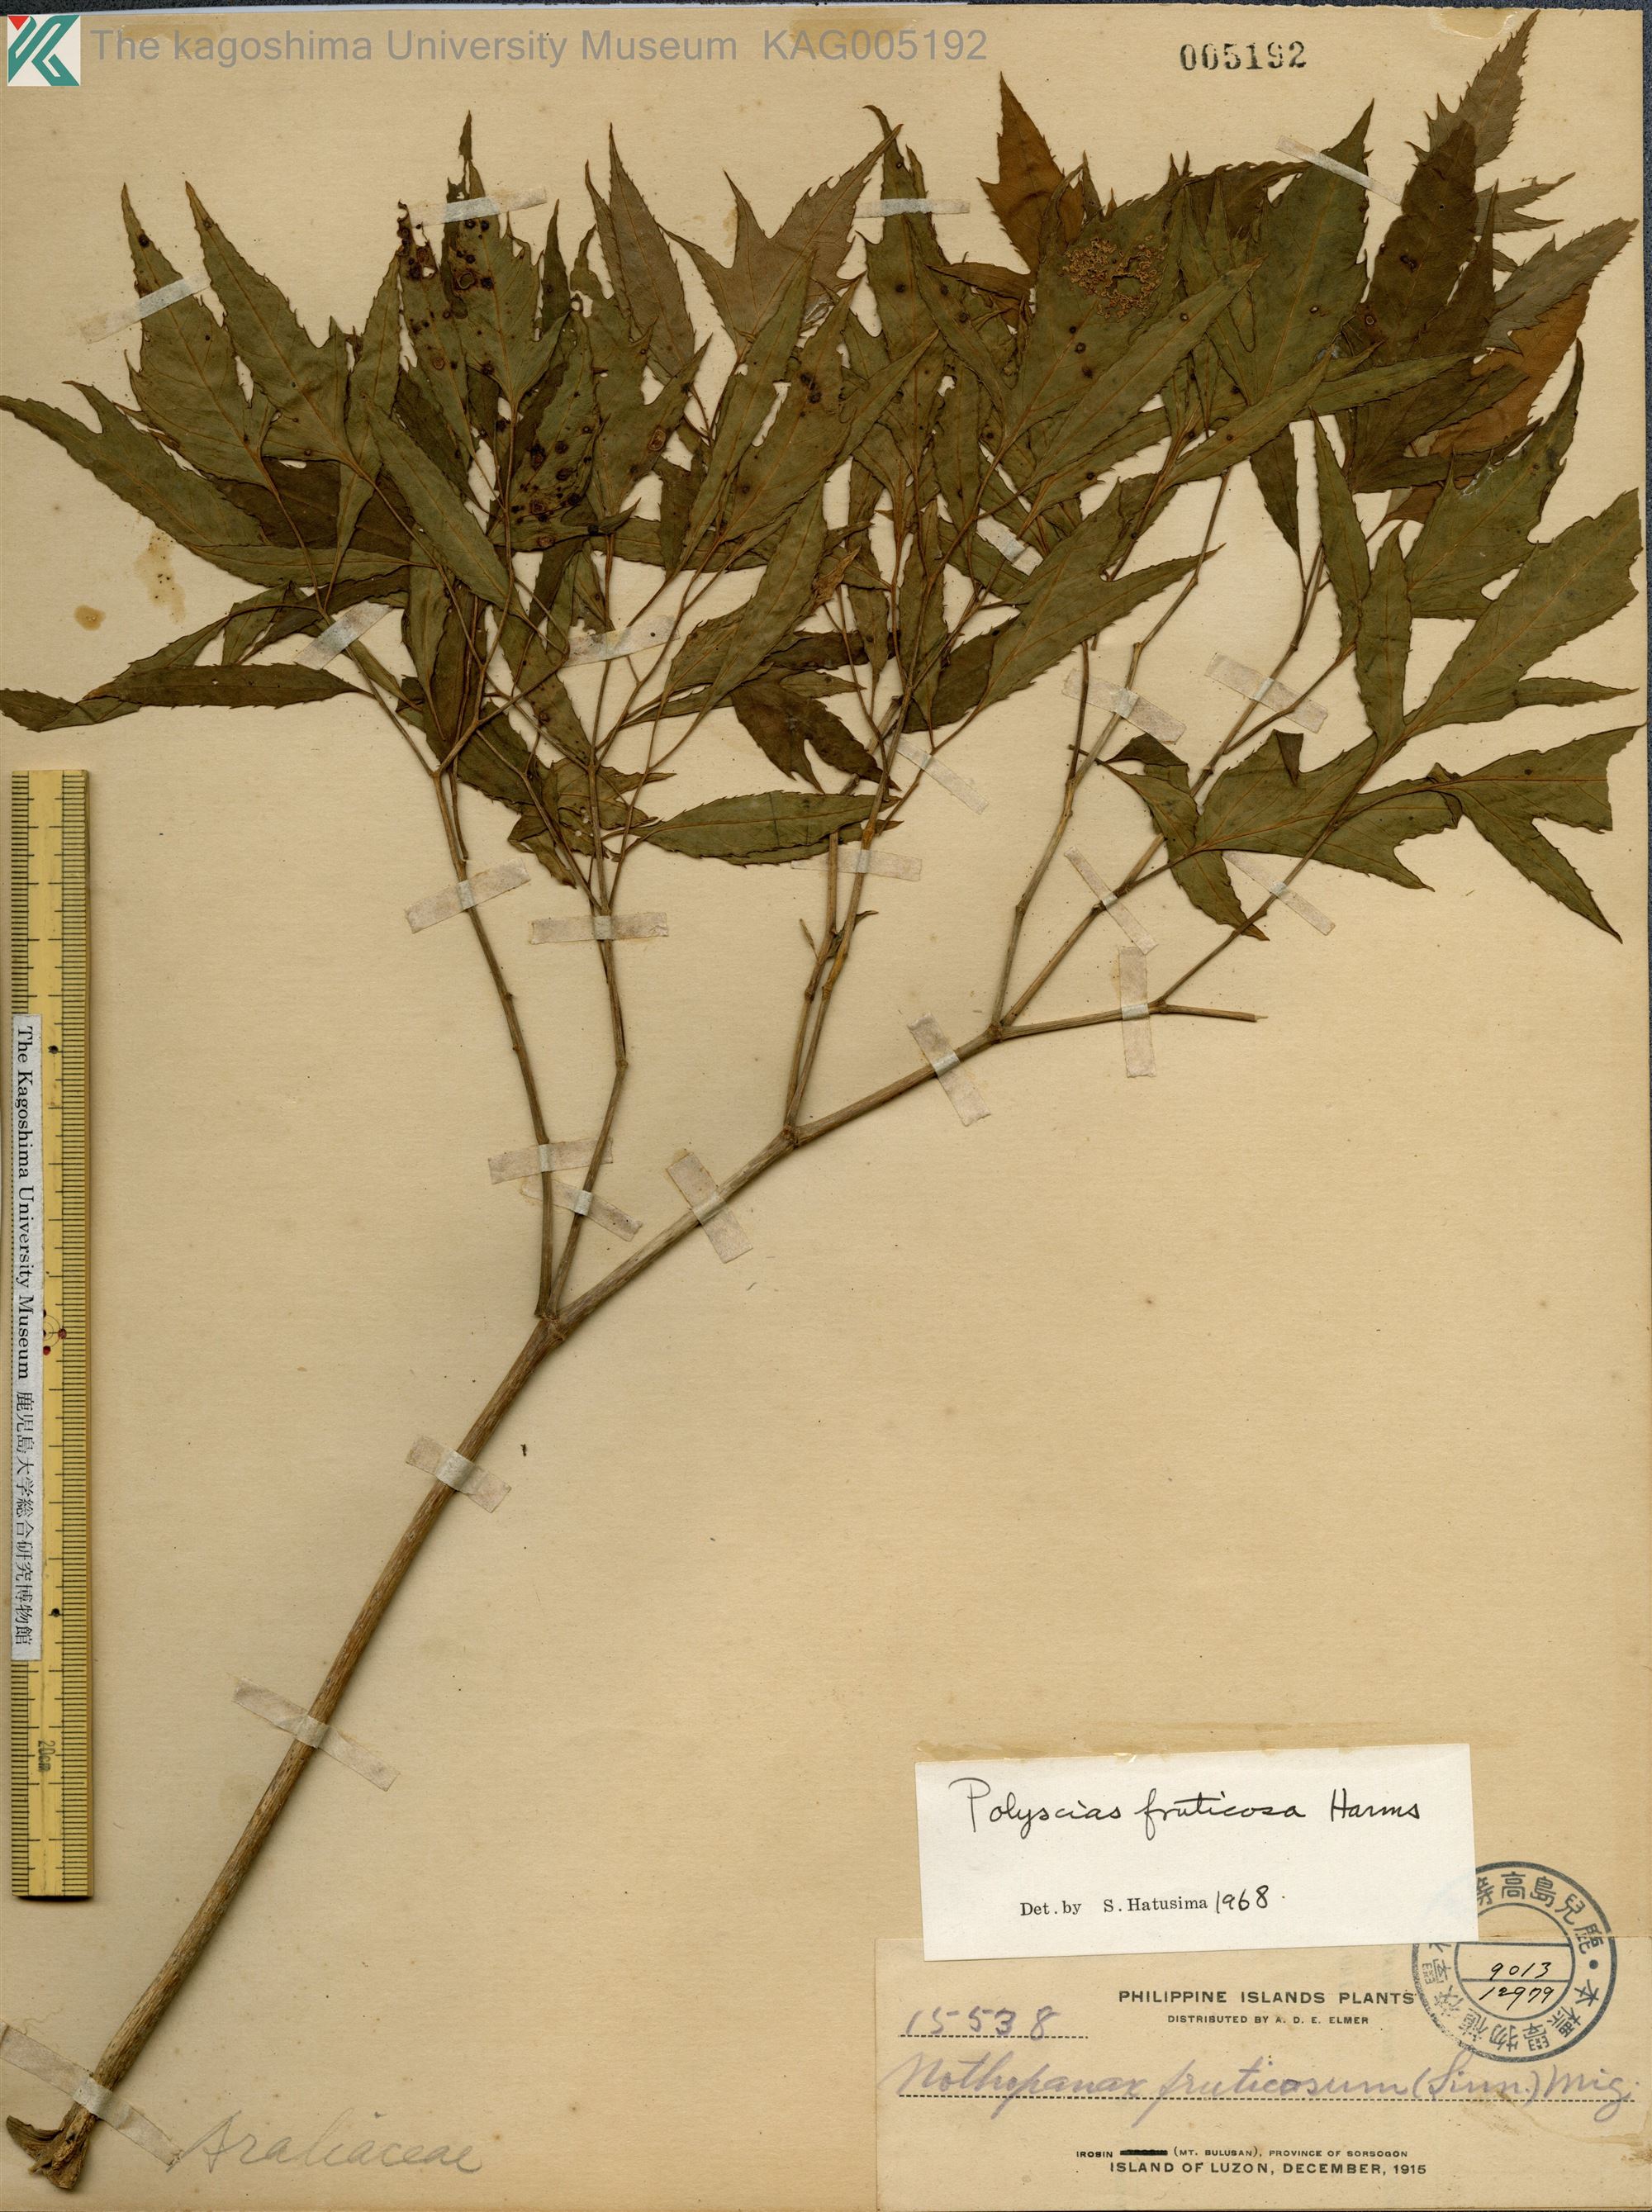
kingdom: Plantae
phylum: Tracheophyta
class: Magnoliopsida
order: Apiales
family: Araliaceae
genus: Polyscias
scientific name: Polyscias fruticosa
